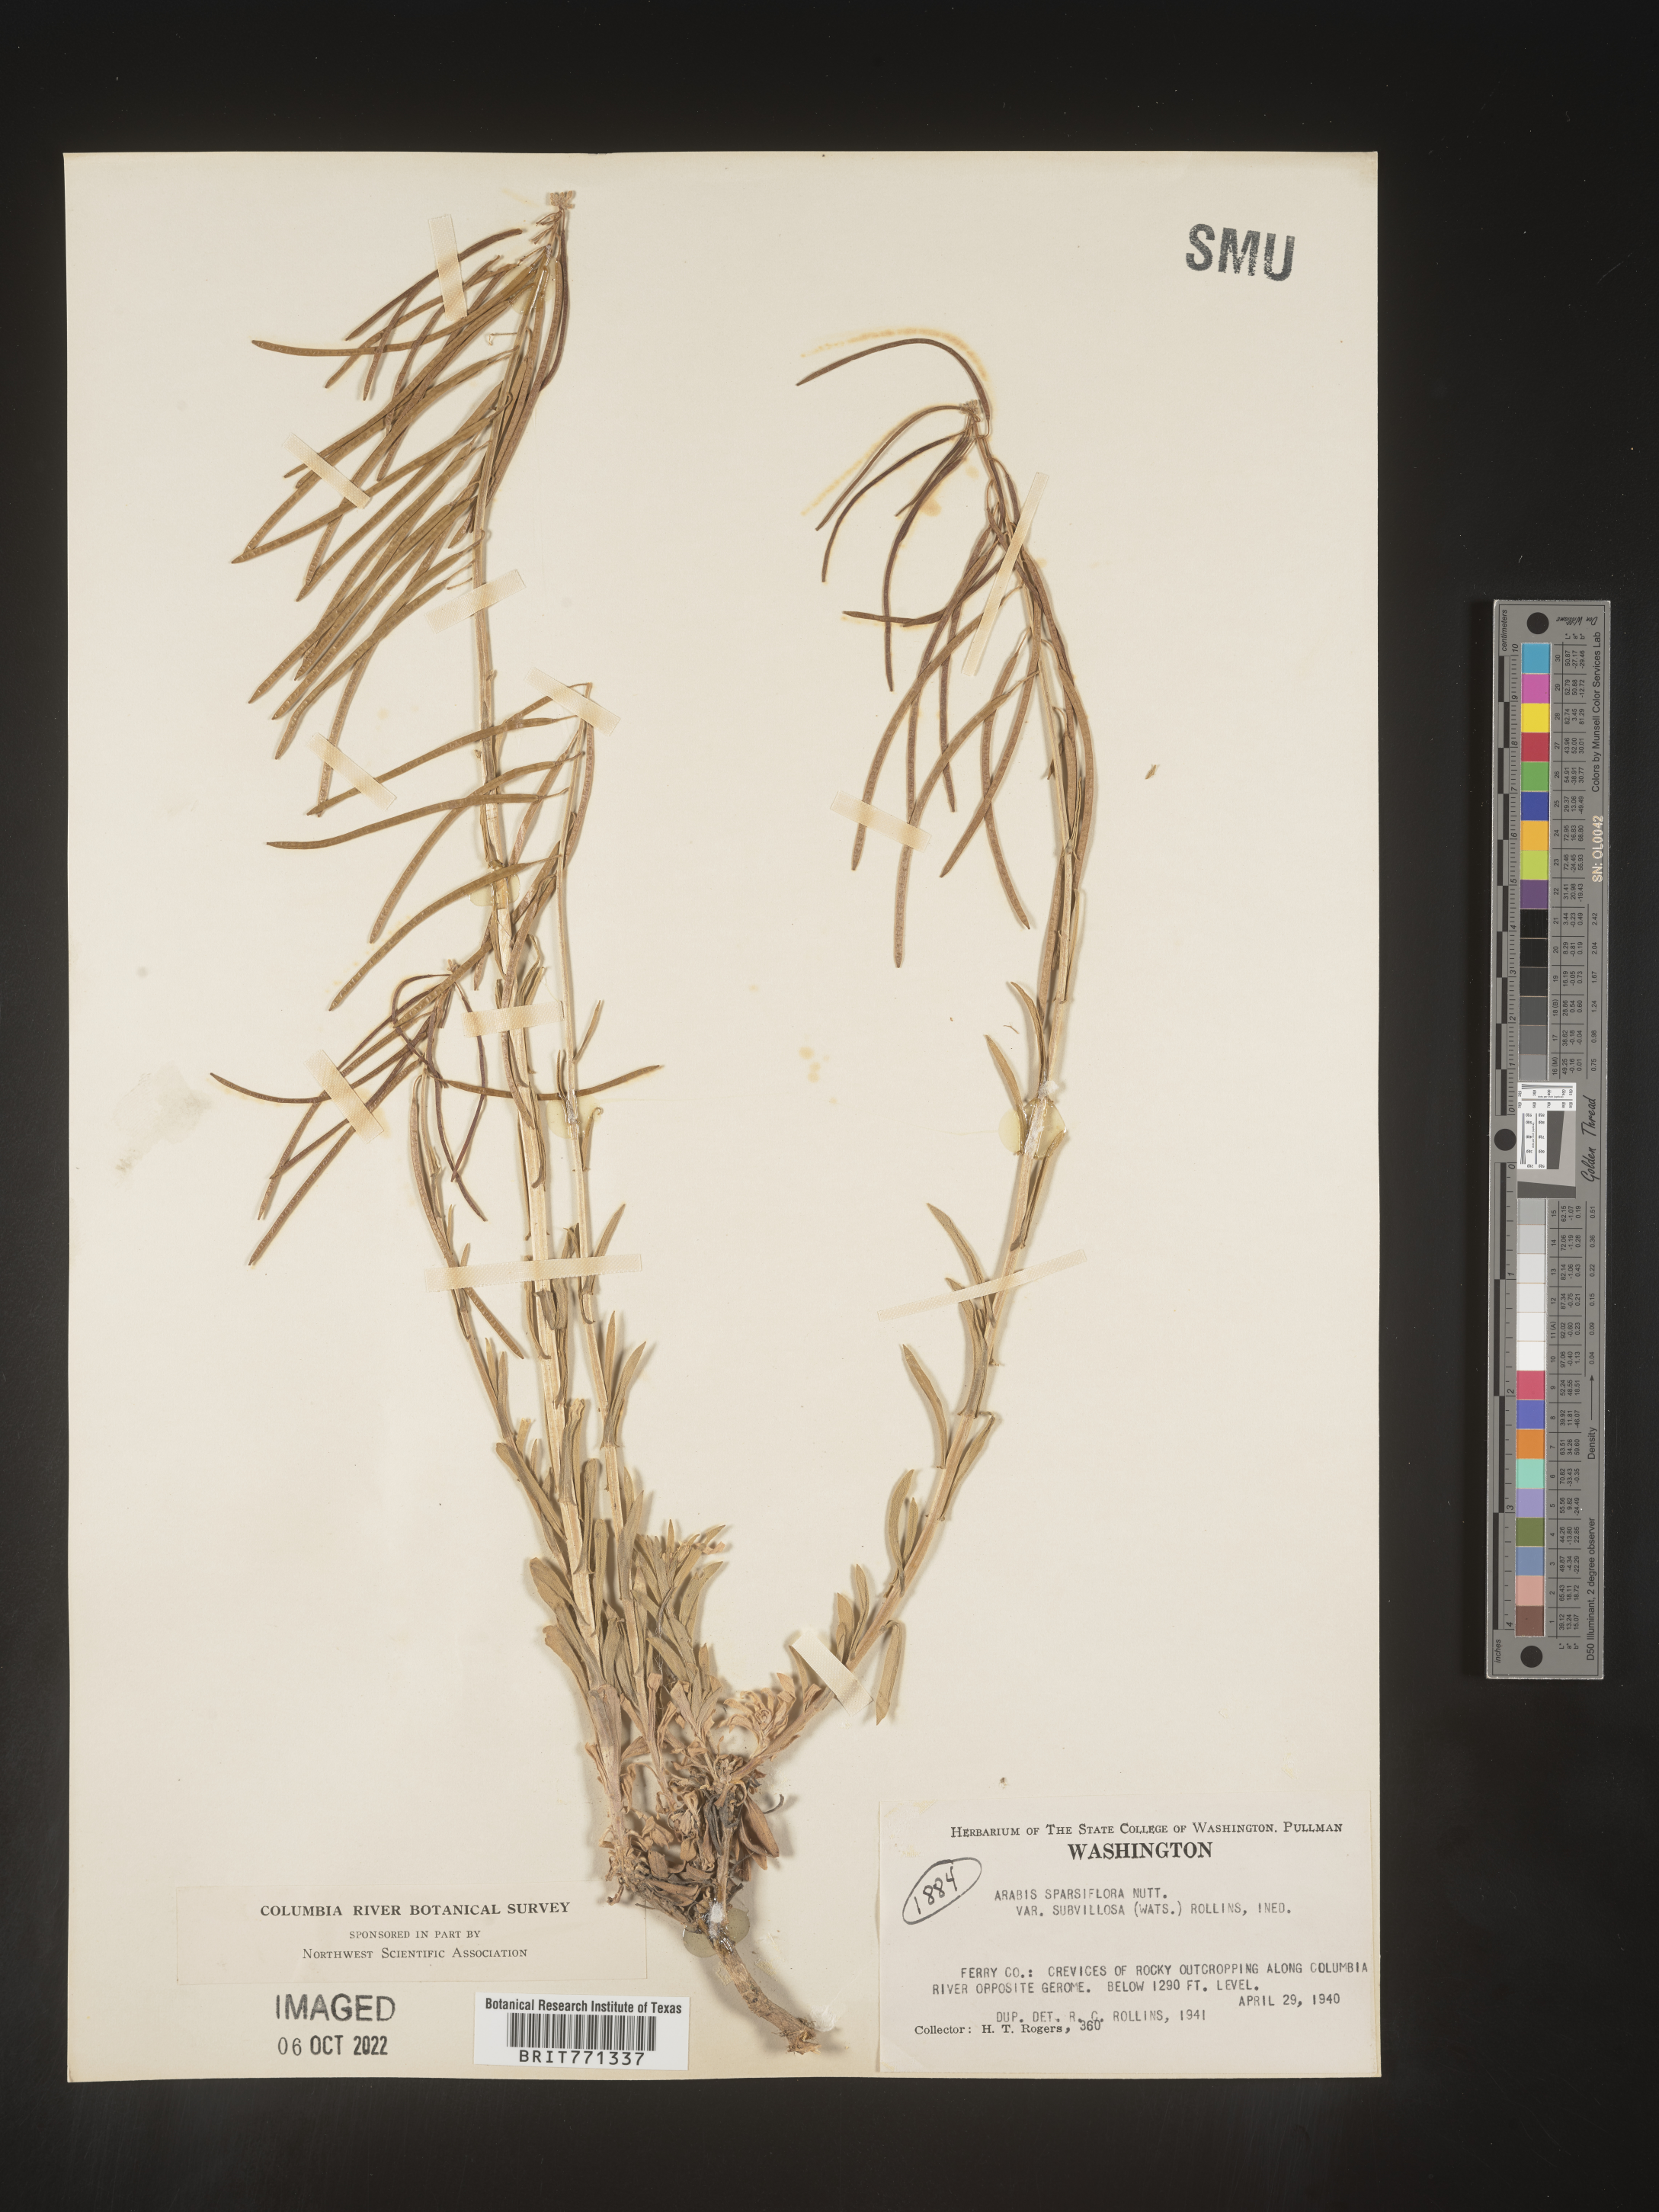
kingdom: Plantae
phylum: Tracheophyta
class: Magnoliopsida
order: Brassicales
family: Brassicaceae
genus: Arabis
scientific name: Arabis
